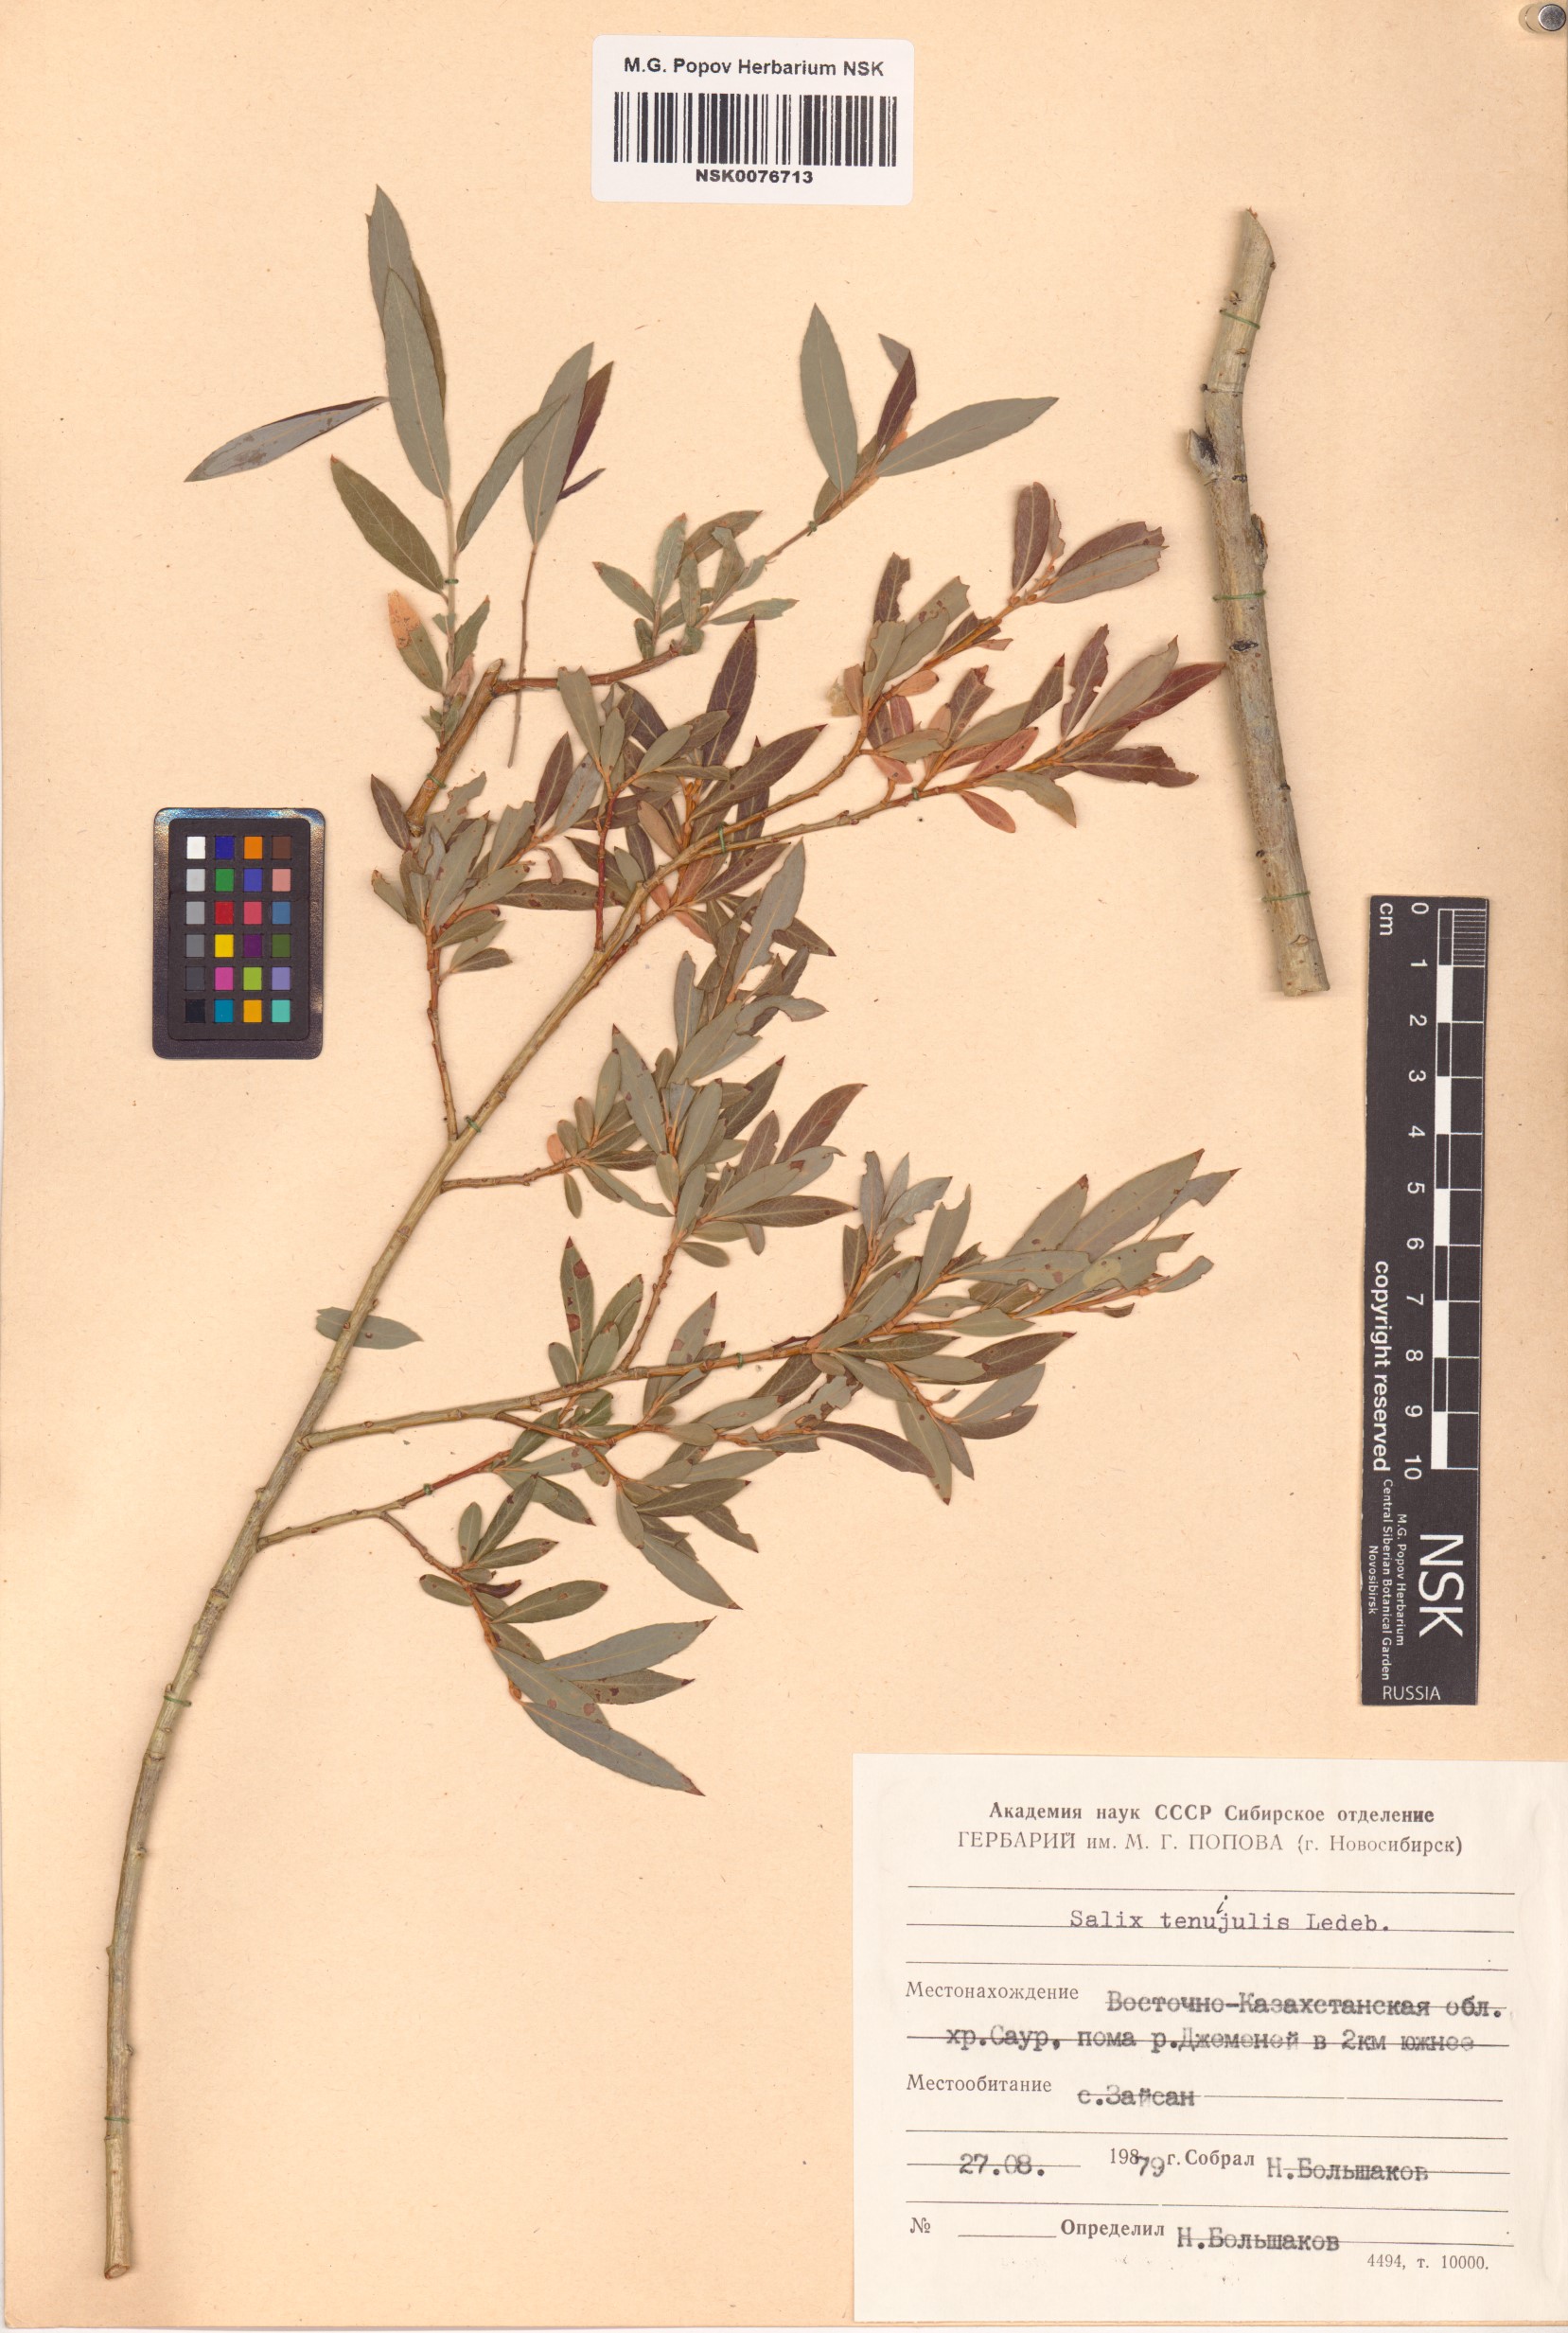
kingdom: Plantae
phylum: Tracheophyta
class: Magnoliopsida
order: Malpighiales
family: Salicaceae
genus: Salix
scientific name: Salix tenuijulis
